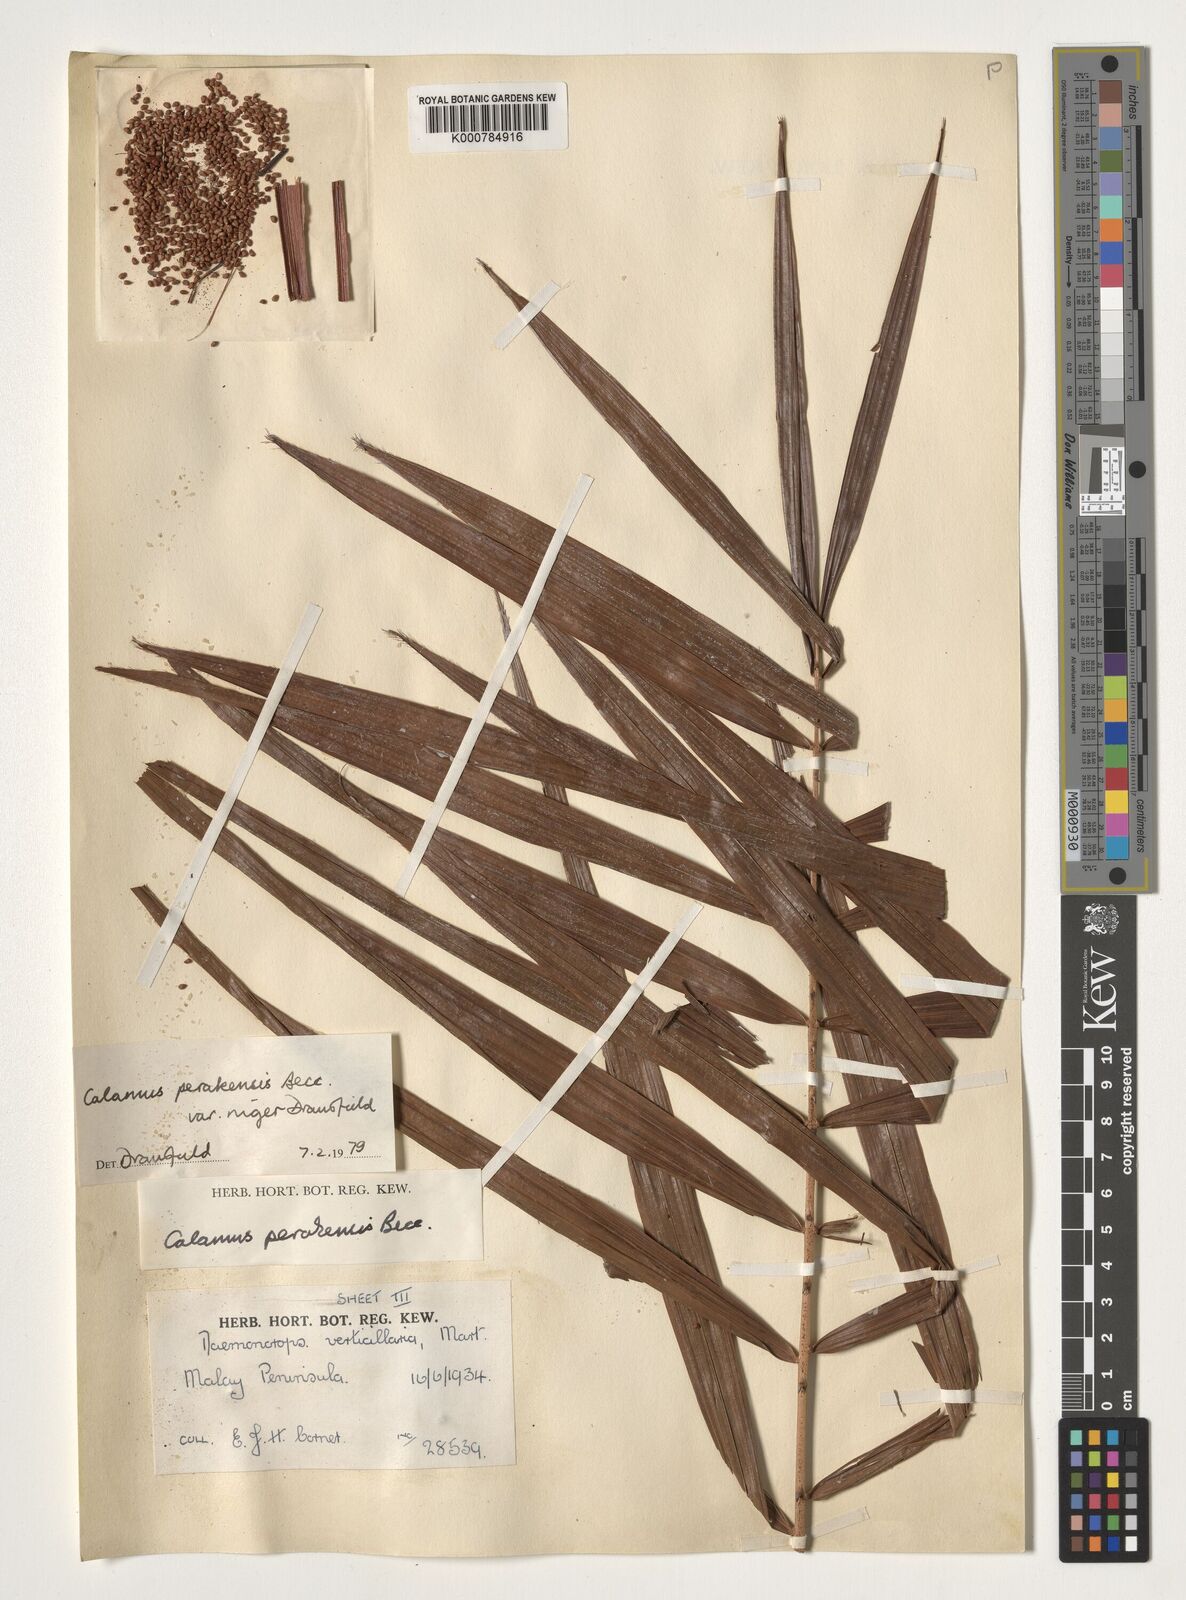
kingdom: Plantae
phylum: Tracheophyta
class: Liliopsida
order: Arecales
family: Arecaceae
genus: Calamus
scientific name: Calamus perakensis
